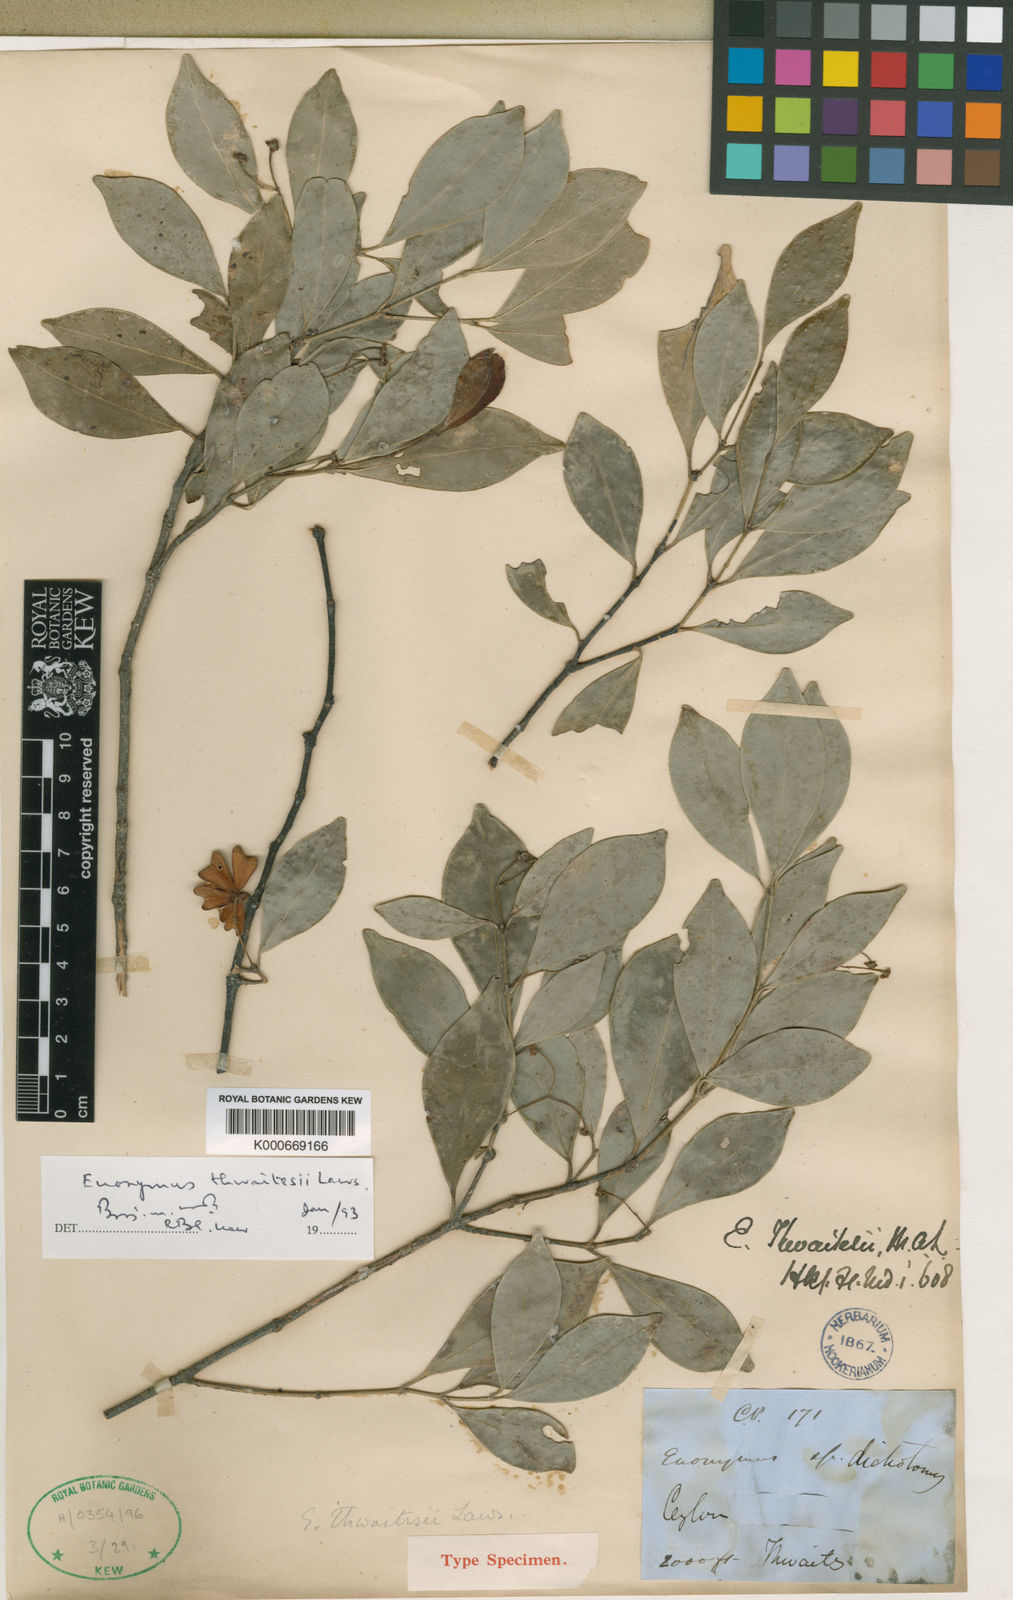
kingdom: Plantae
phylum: Tracheophyta
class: Magnoliopsida
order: Celastrales
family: Celastraceae
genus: Euonymus
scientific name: Euonymus dichotomus
